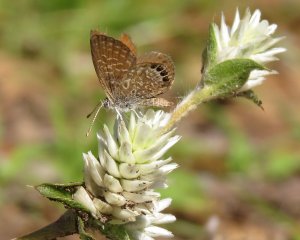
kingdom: Animalia
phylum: Arthropoda
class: Insecta
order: Lepidoptera
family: Lycaenidae
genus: Brephidium
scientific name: Brephidium isophthalma
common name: Eastern Pygmy-Blue
